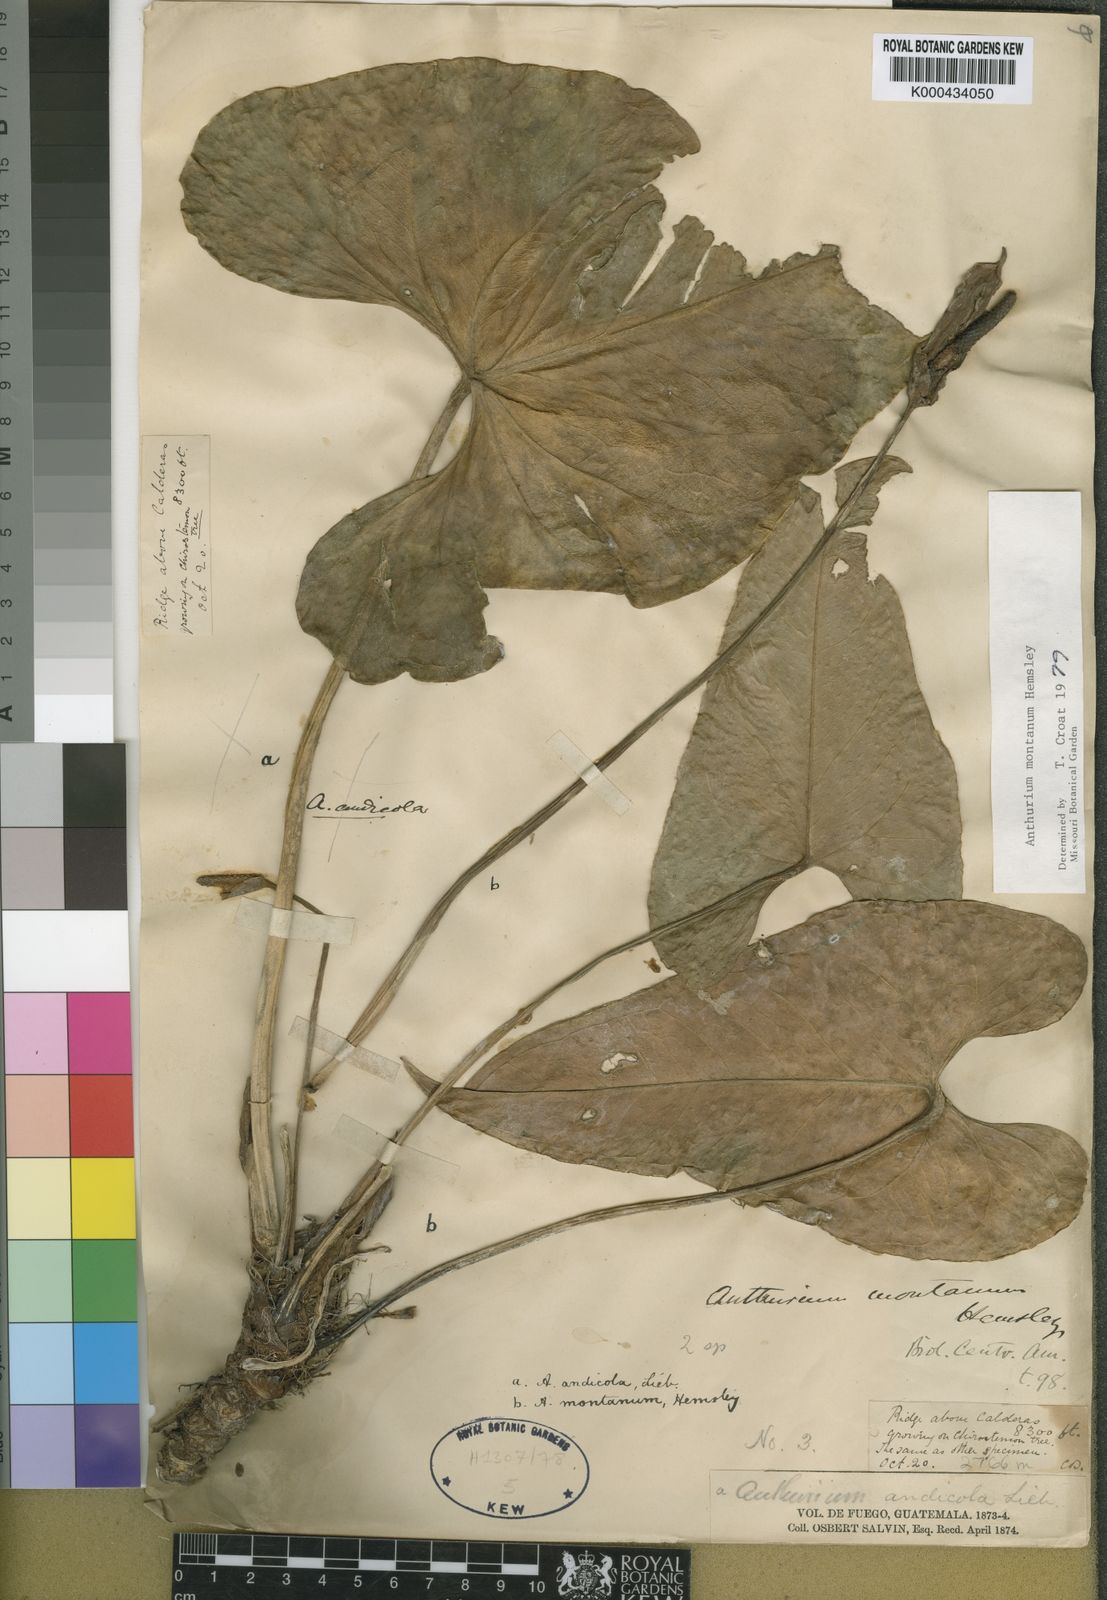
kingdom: Plantae
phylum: Tracheophyta
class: Liliopsida
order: Alismatales
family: Araceae
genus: Anthurium
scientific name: Anthurium montanum
